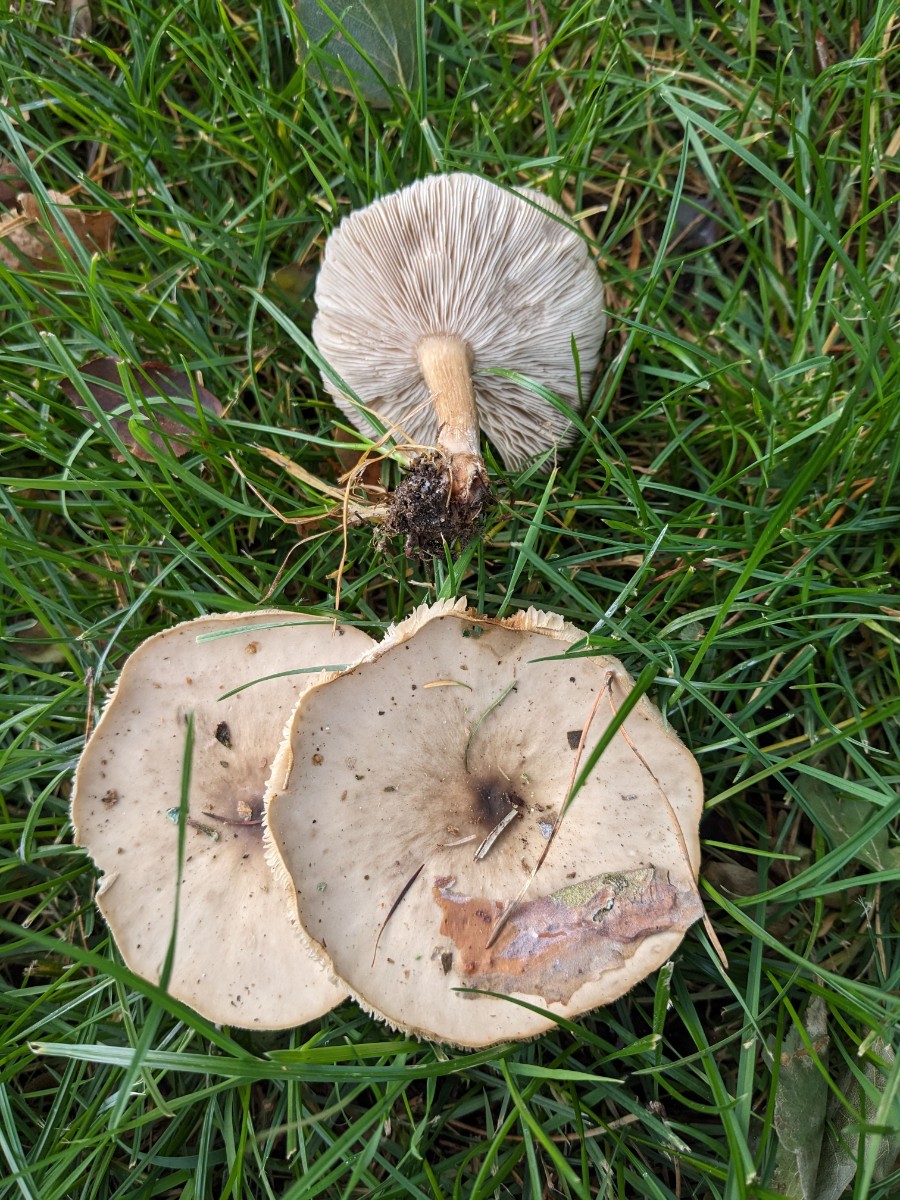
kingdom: Fungi
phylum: Basidiomycota
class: Agaricomycetes
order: Agaricales
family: Tricholomataceae
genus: Melanoleuca
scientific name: Melanoleuca grammopodia
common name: stribestokket munkehat
